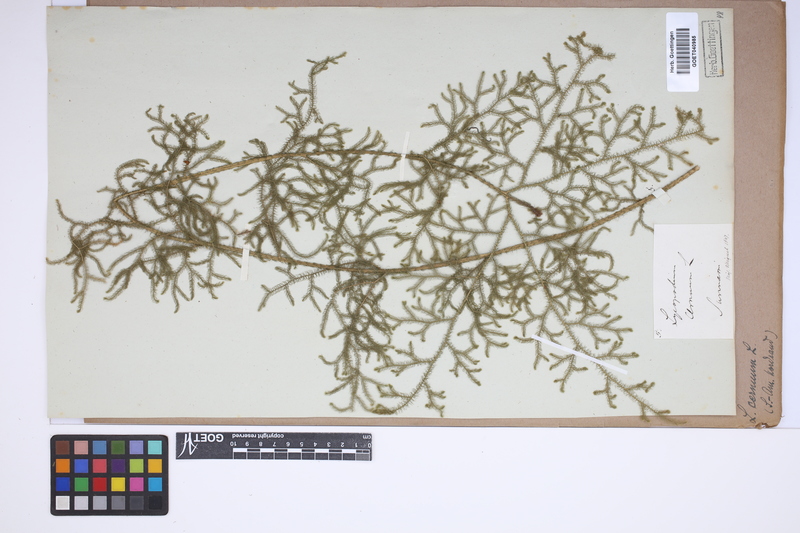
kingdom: Plantae
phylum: Tracheophyta
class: Lycopodiopsida
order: Lycopodiales
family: Lycopodiaceae
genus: Palhinhaea
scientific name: Palhinhaea cernua
